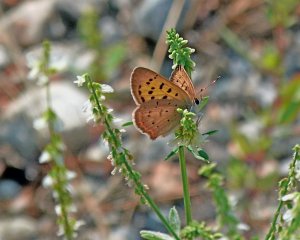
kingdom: Animalia
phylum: Arthropoda
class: Insecta
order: Lepidoptera
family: Sesiidae
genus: Sesia
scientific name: Sesia Lycaena helloides
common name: Purplish Copper
